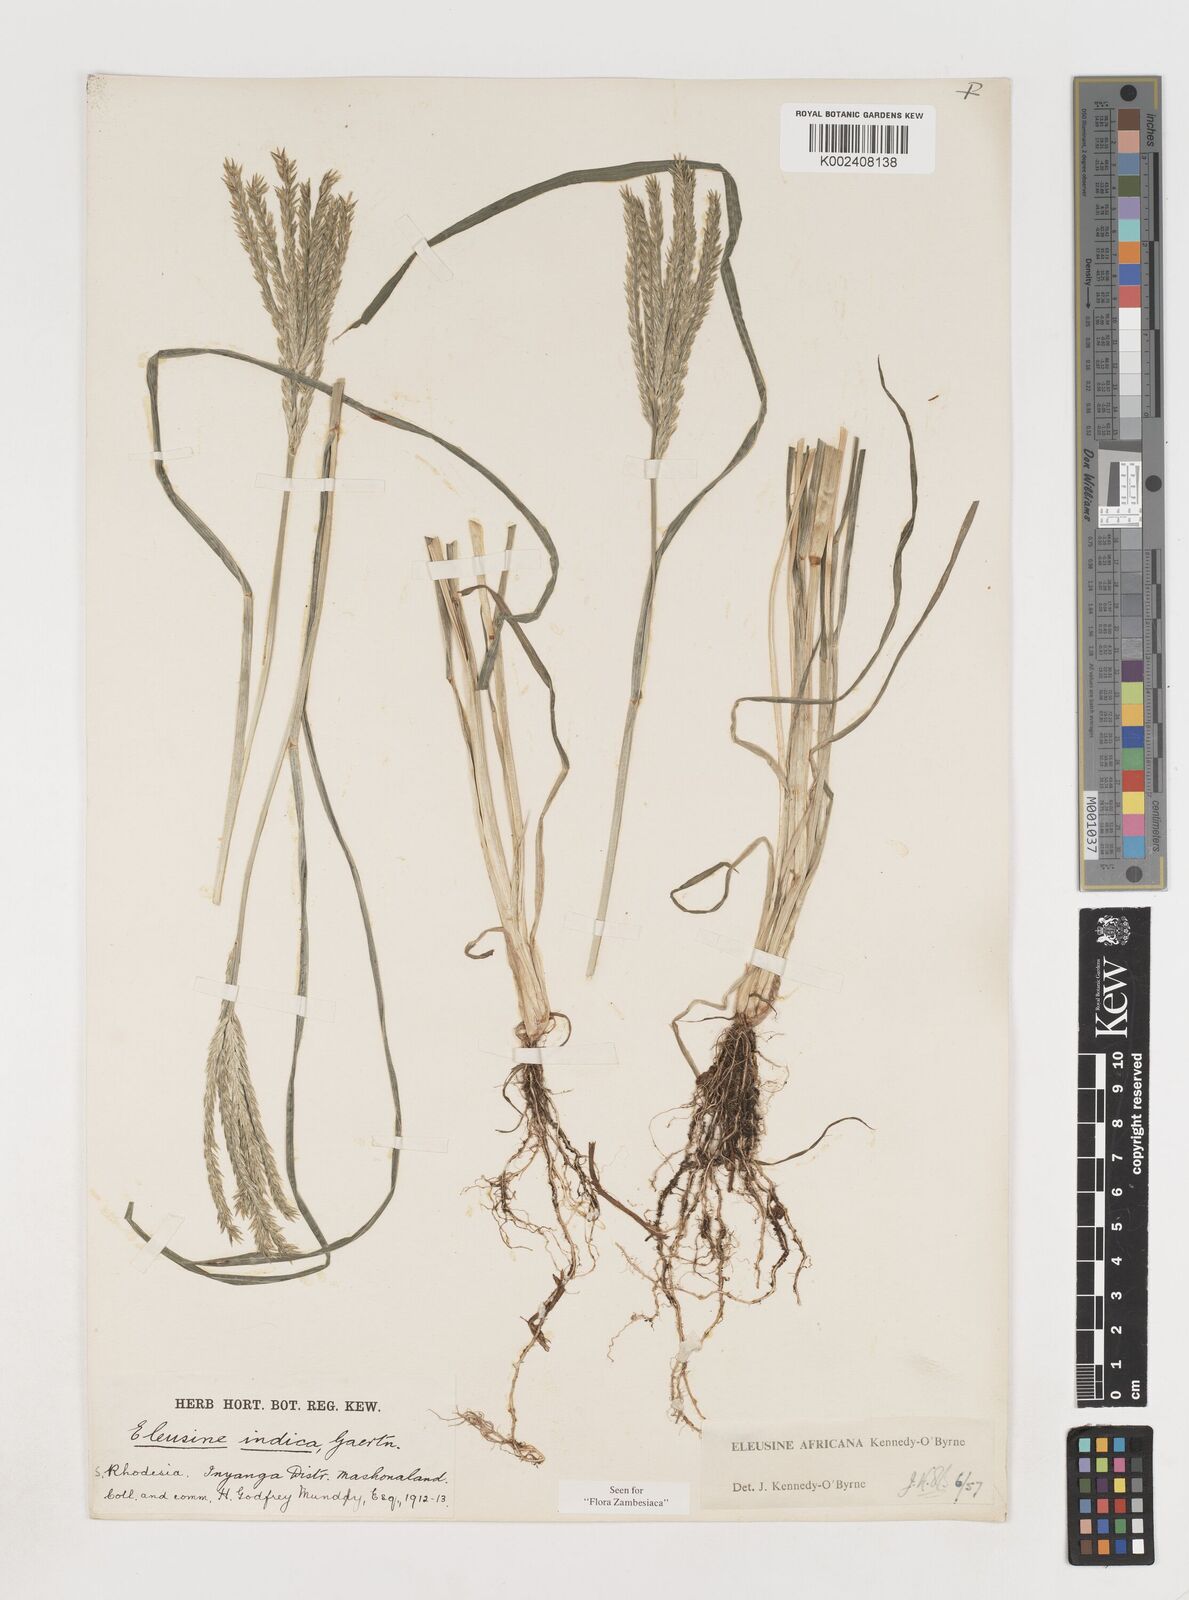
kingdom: Plantae
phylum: Tracheophyta
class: Liliopsida
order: Poales
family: Poaceae
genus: Eleusine
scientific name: Eleusine africana
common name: Wild african finger millet
